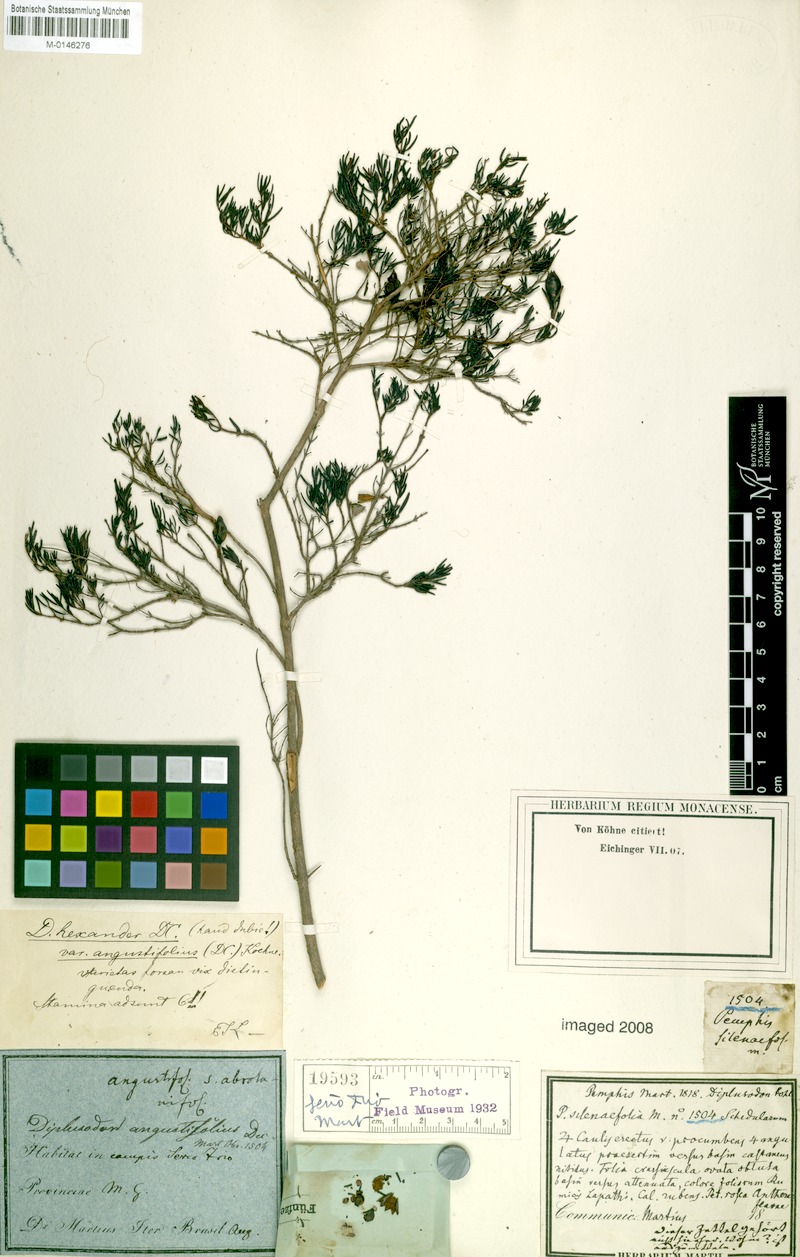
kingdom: Plantae
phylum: Tracheophyta
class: Magnoliopsida
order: Myrtales
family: Lythraceae
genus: Diplusodon
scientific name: Diplusodon hexander
